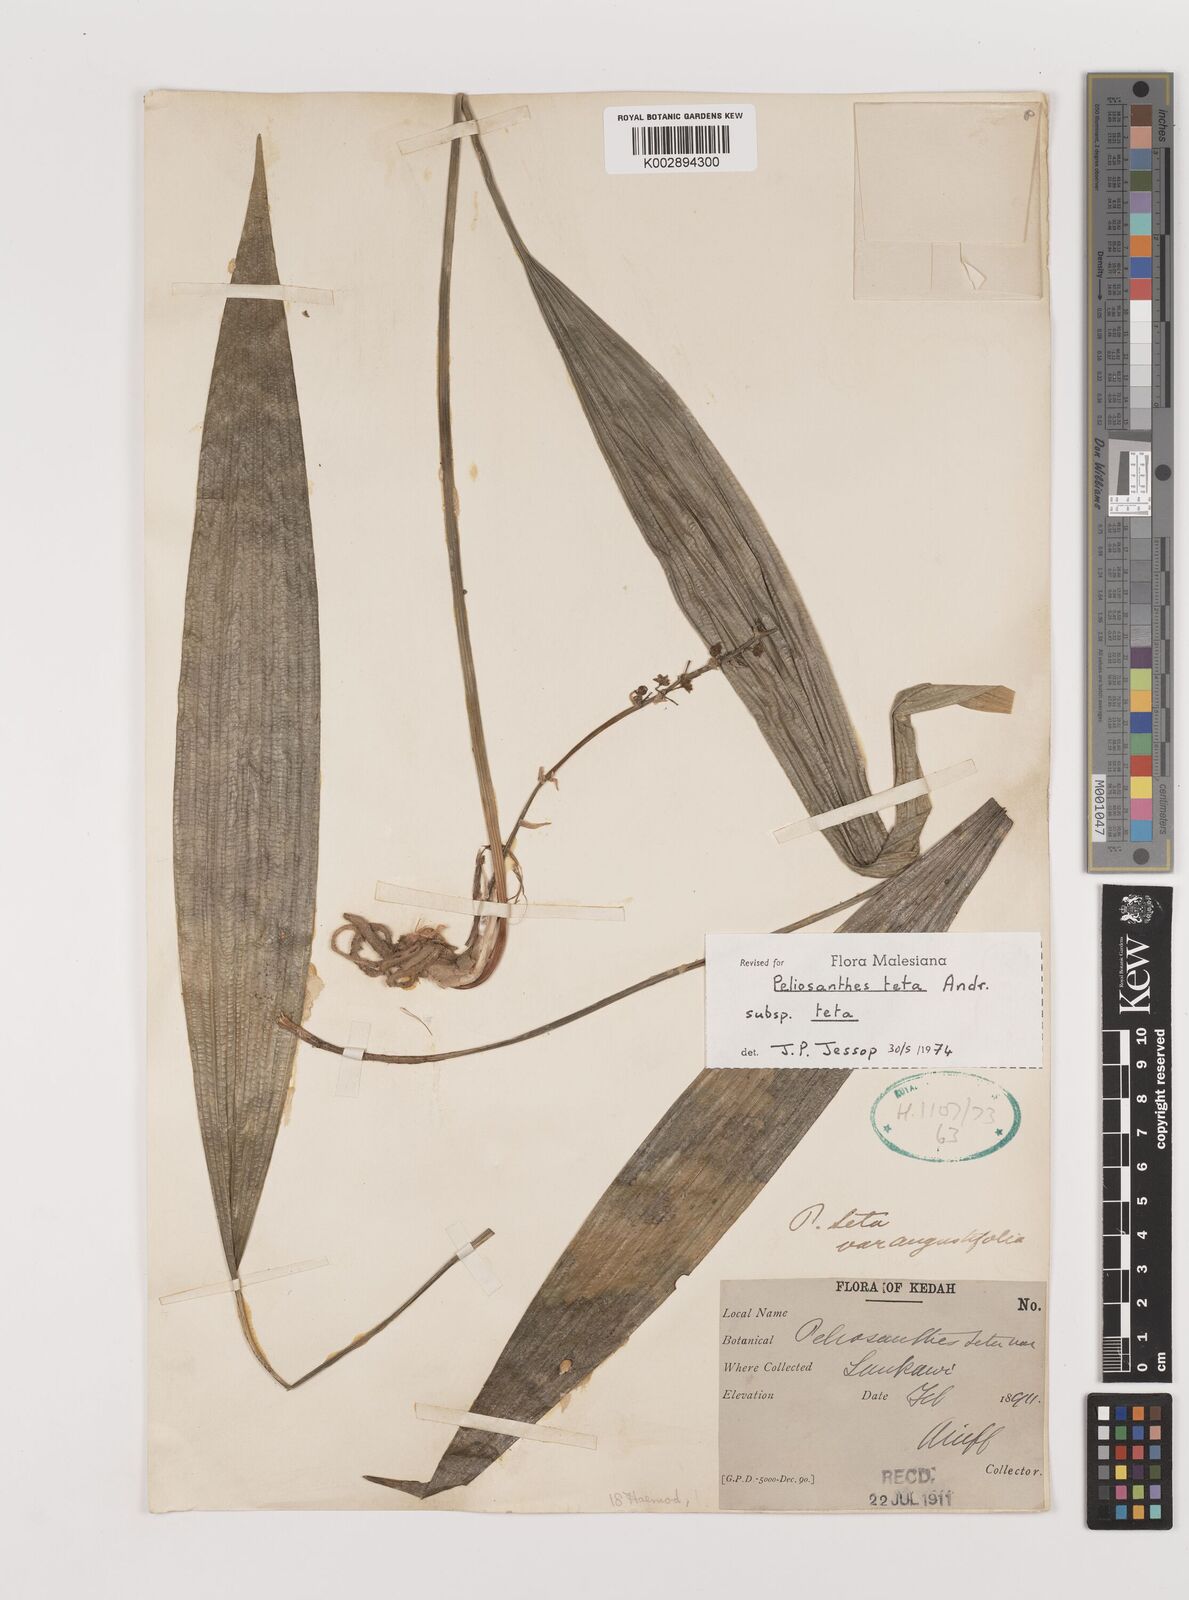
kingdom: Plantae
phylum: Tracheophyta
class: Liliopsida
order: Asparagales
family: Asparagaceae
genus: Peliosanthes
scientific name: Peliosanthes teta
